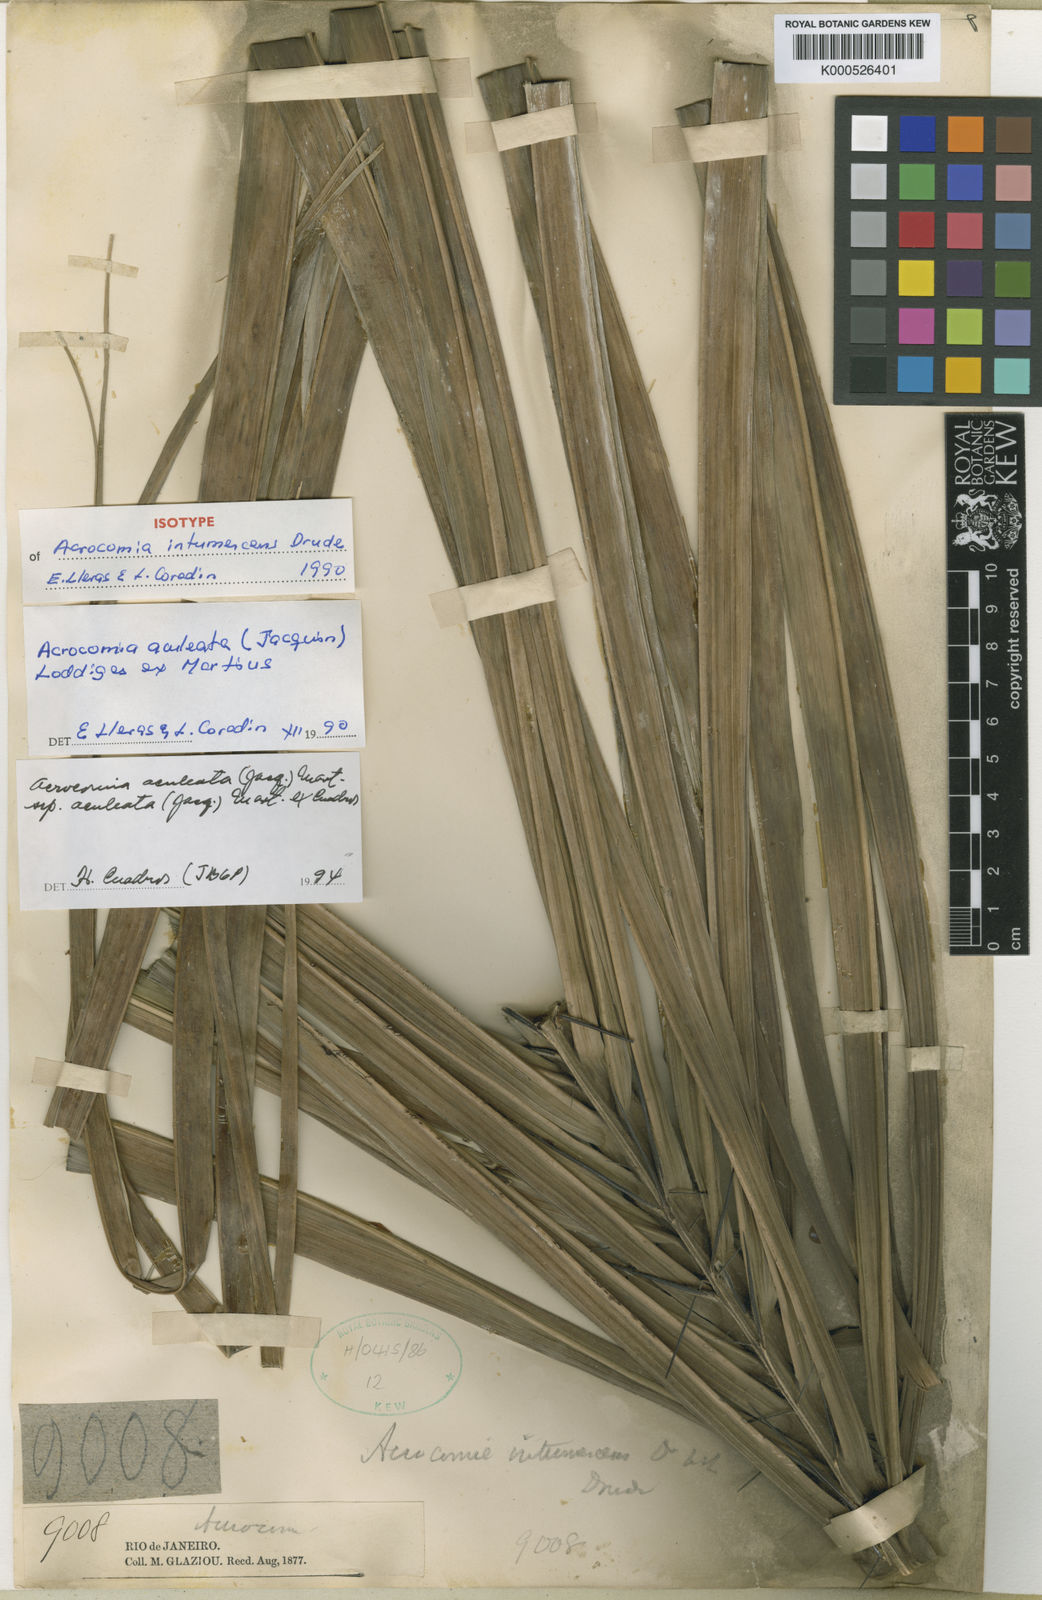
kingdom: Plantae
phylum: Tracheophyta
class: Liliopsida
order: Arecales
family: Arecaceae
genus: Acrocomia
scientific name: Acrocomia intumescens
